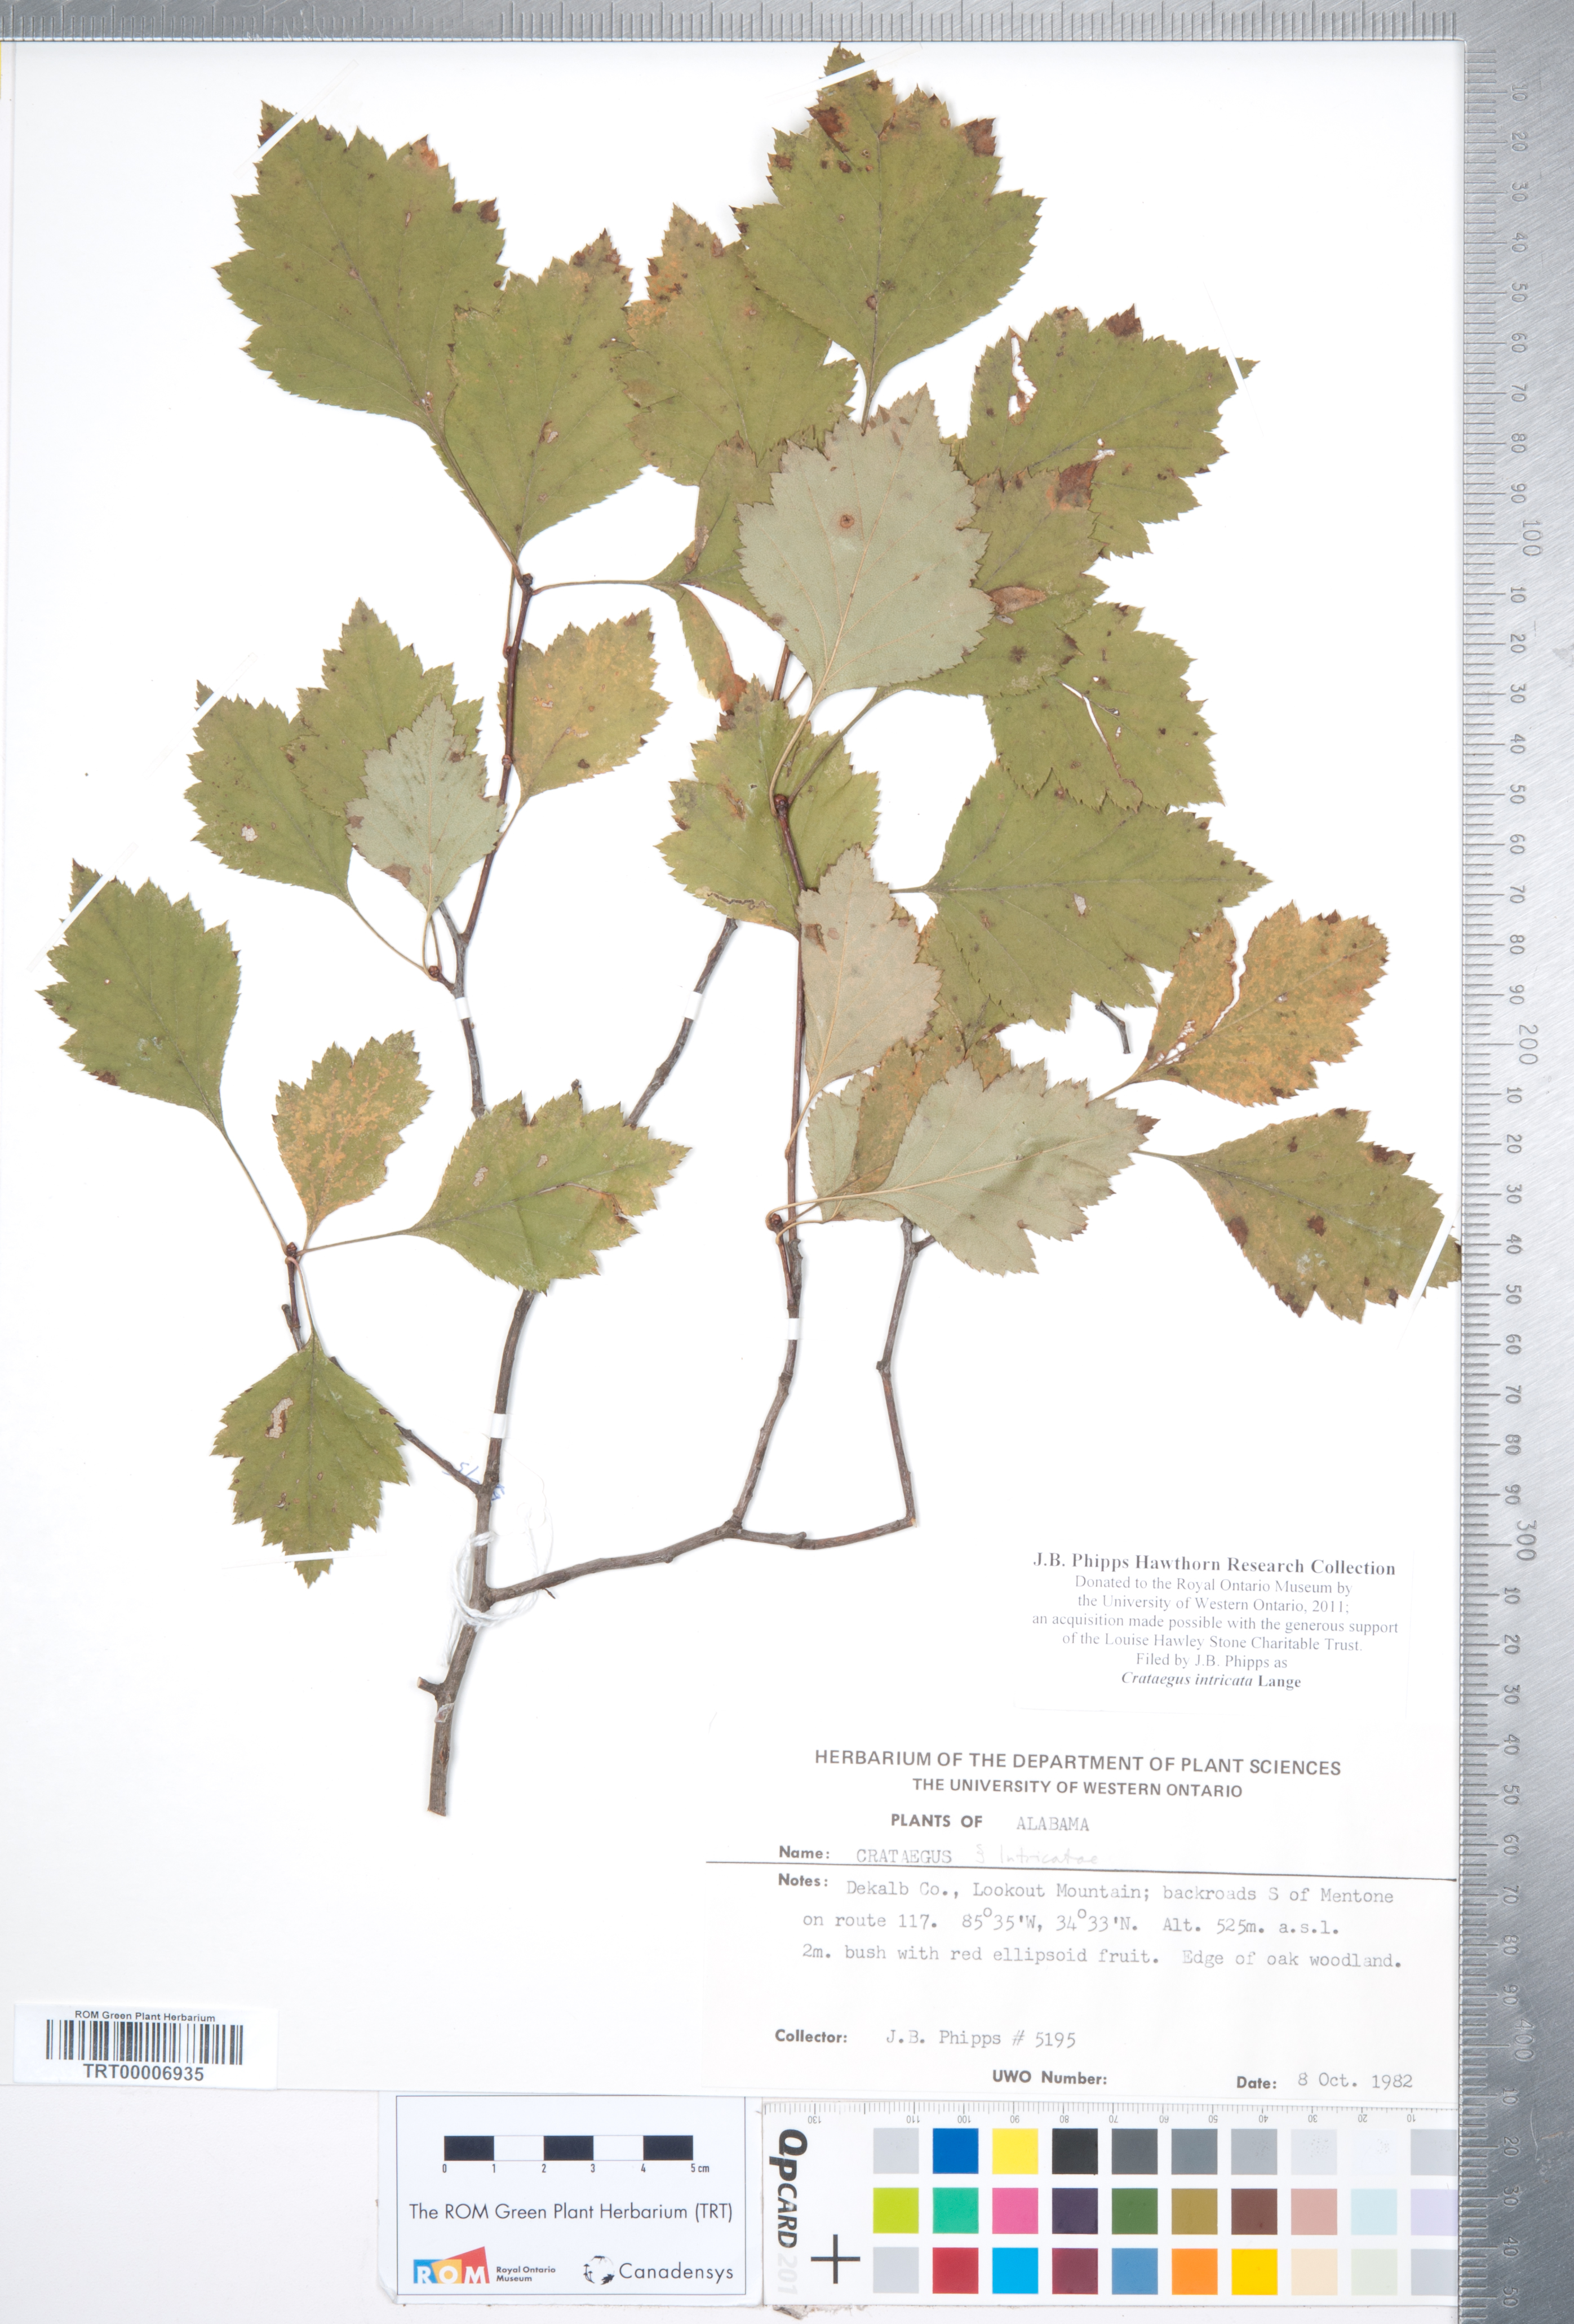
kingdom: Plantae
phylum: Tracheophyta
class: Magnoliopsida
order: Rosales
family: Rosaceae
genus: Crataegus
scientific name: Crataegus intricata
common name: Biltmore hawthorn
